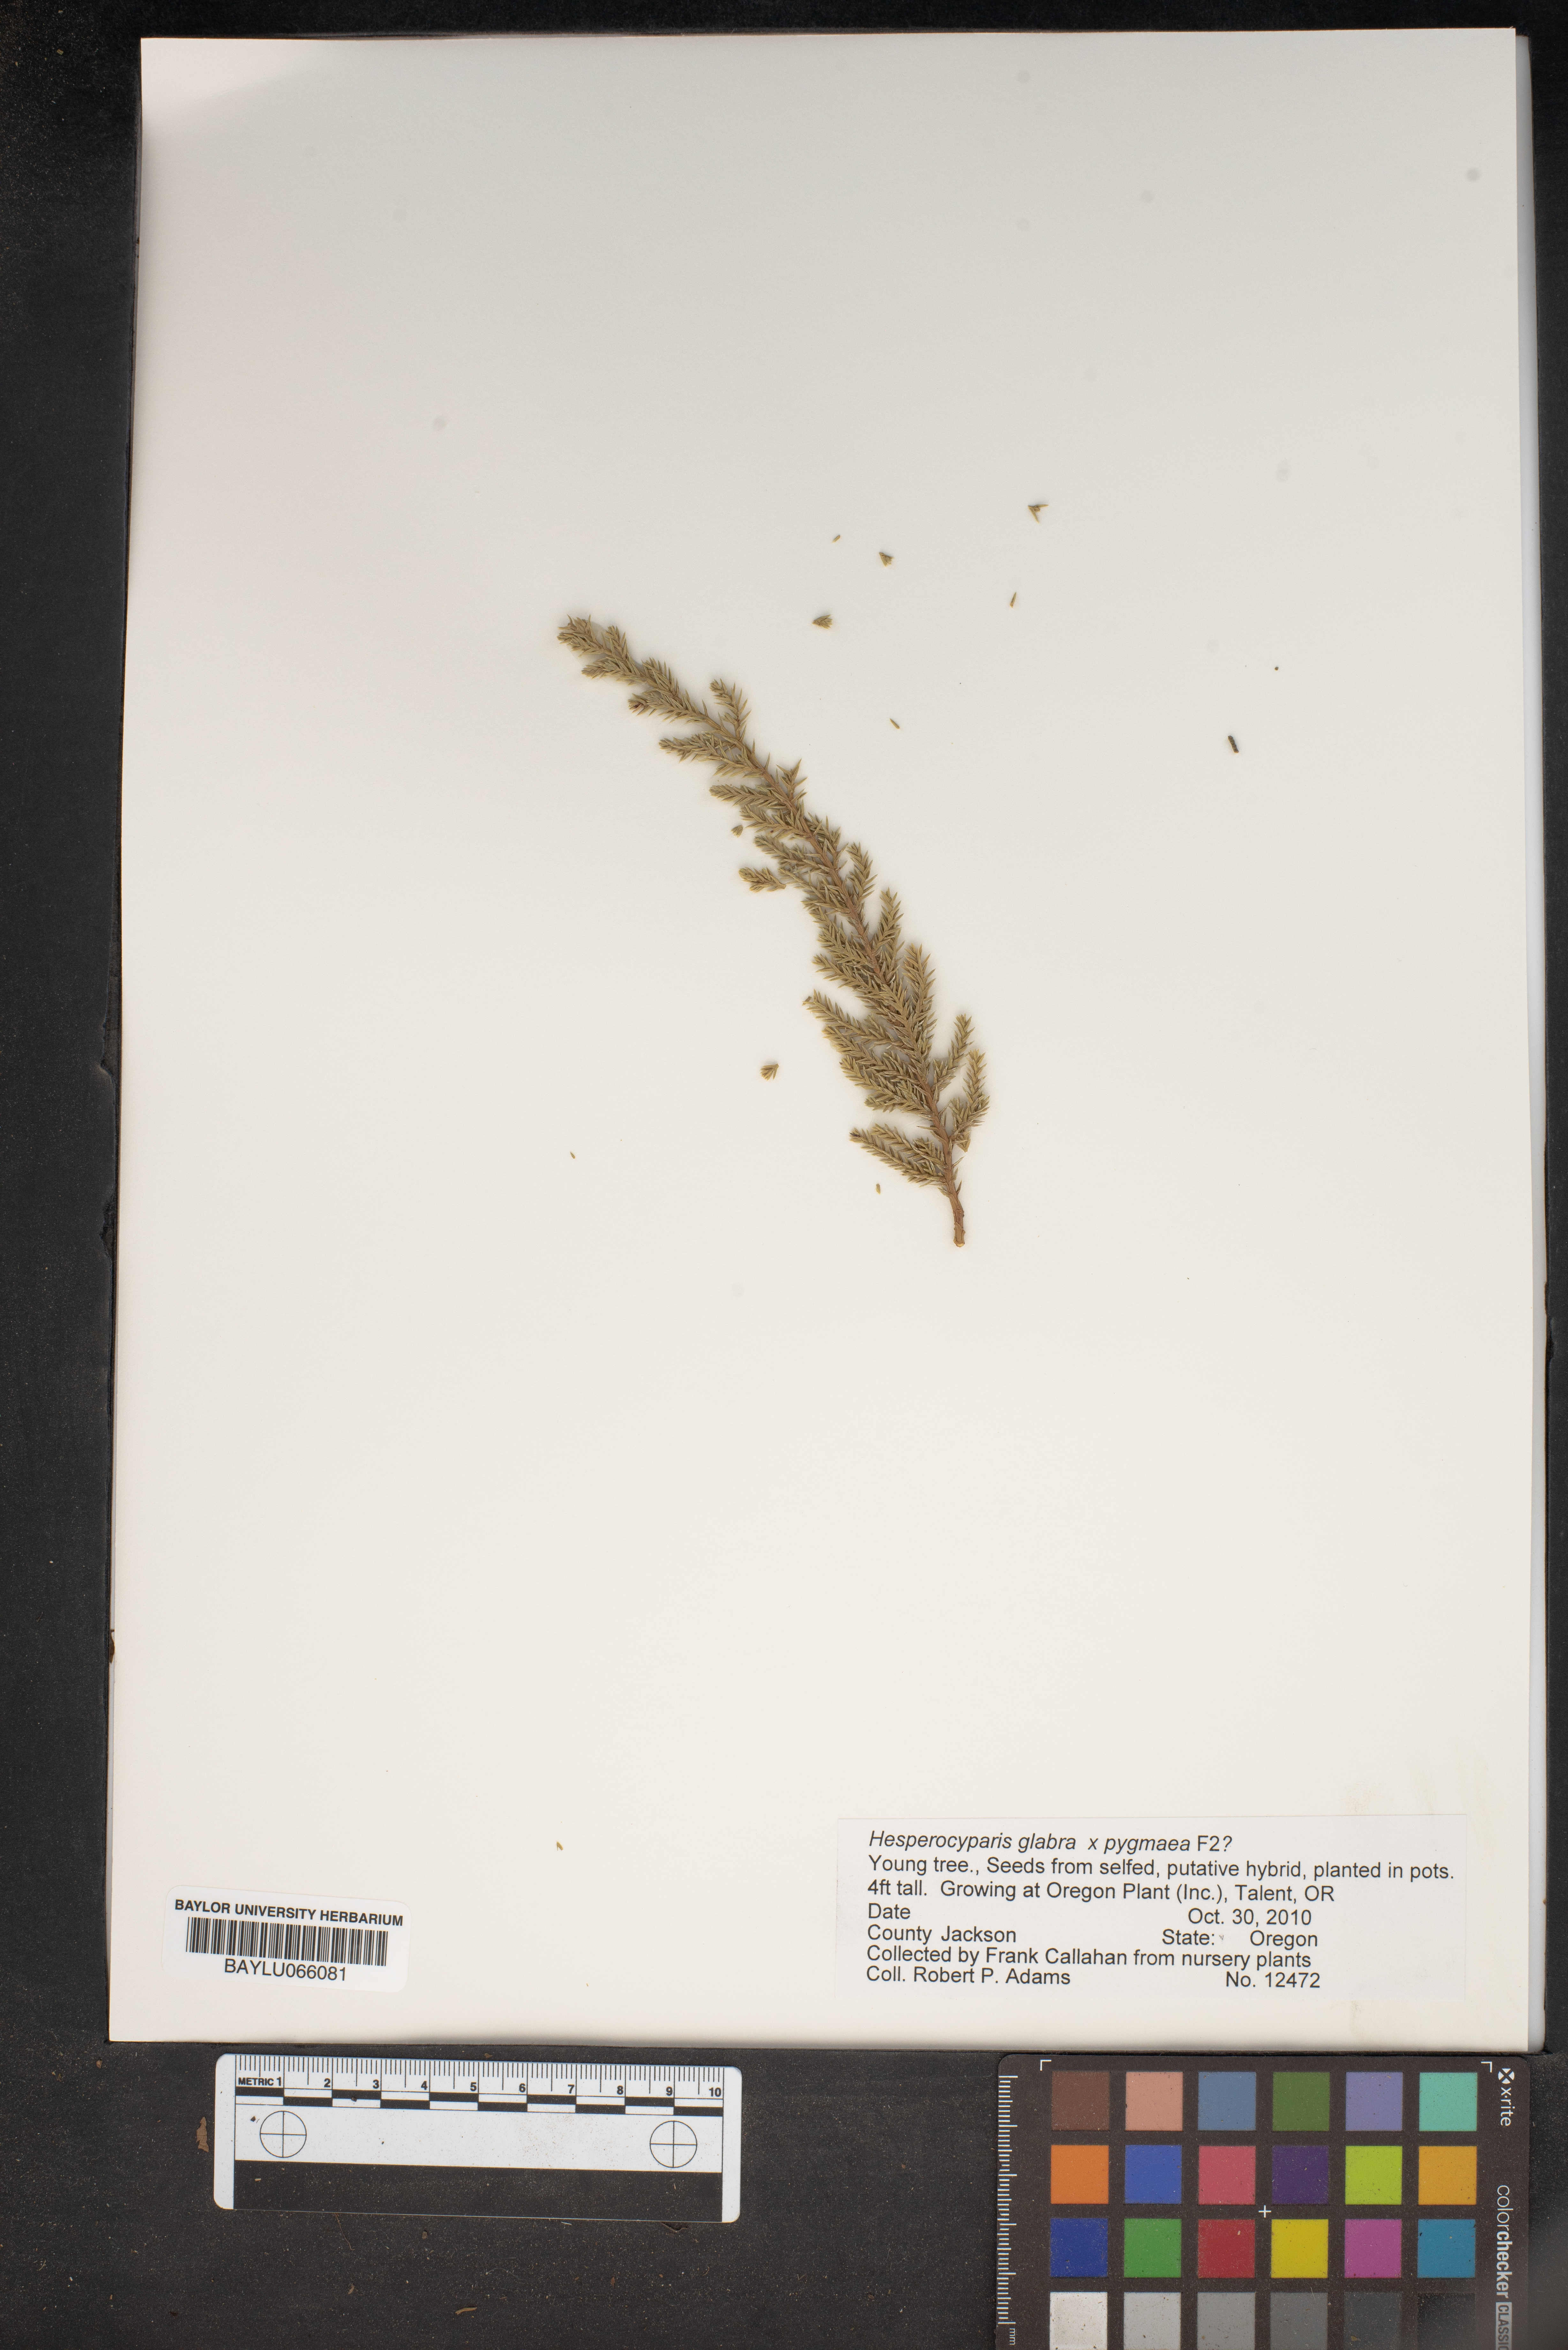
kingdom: Plantae
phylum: Tracheophyta
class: Pinopsida
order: Pinales
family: Cupressaceae
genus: Cupressus
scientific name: Cupressus arizonica
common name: Arizona cypress
